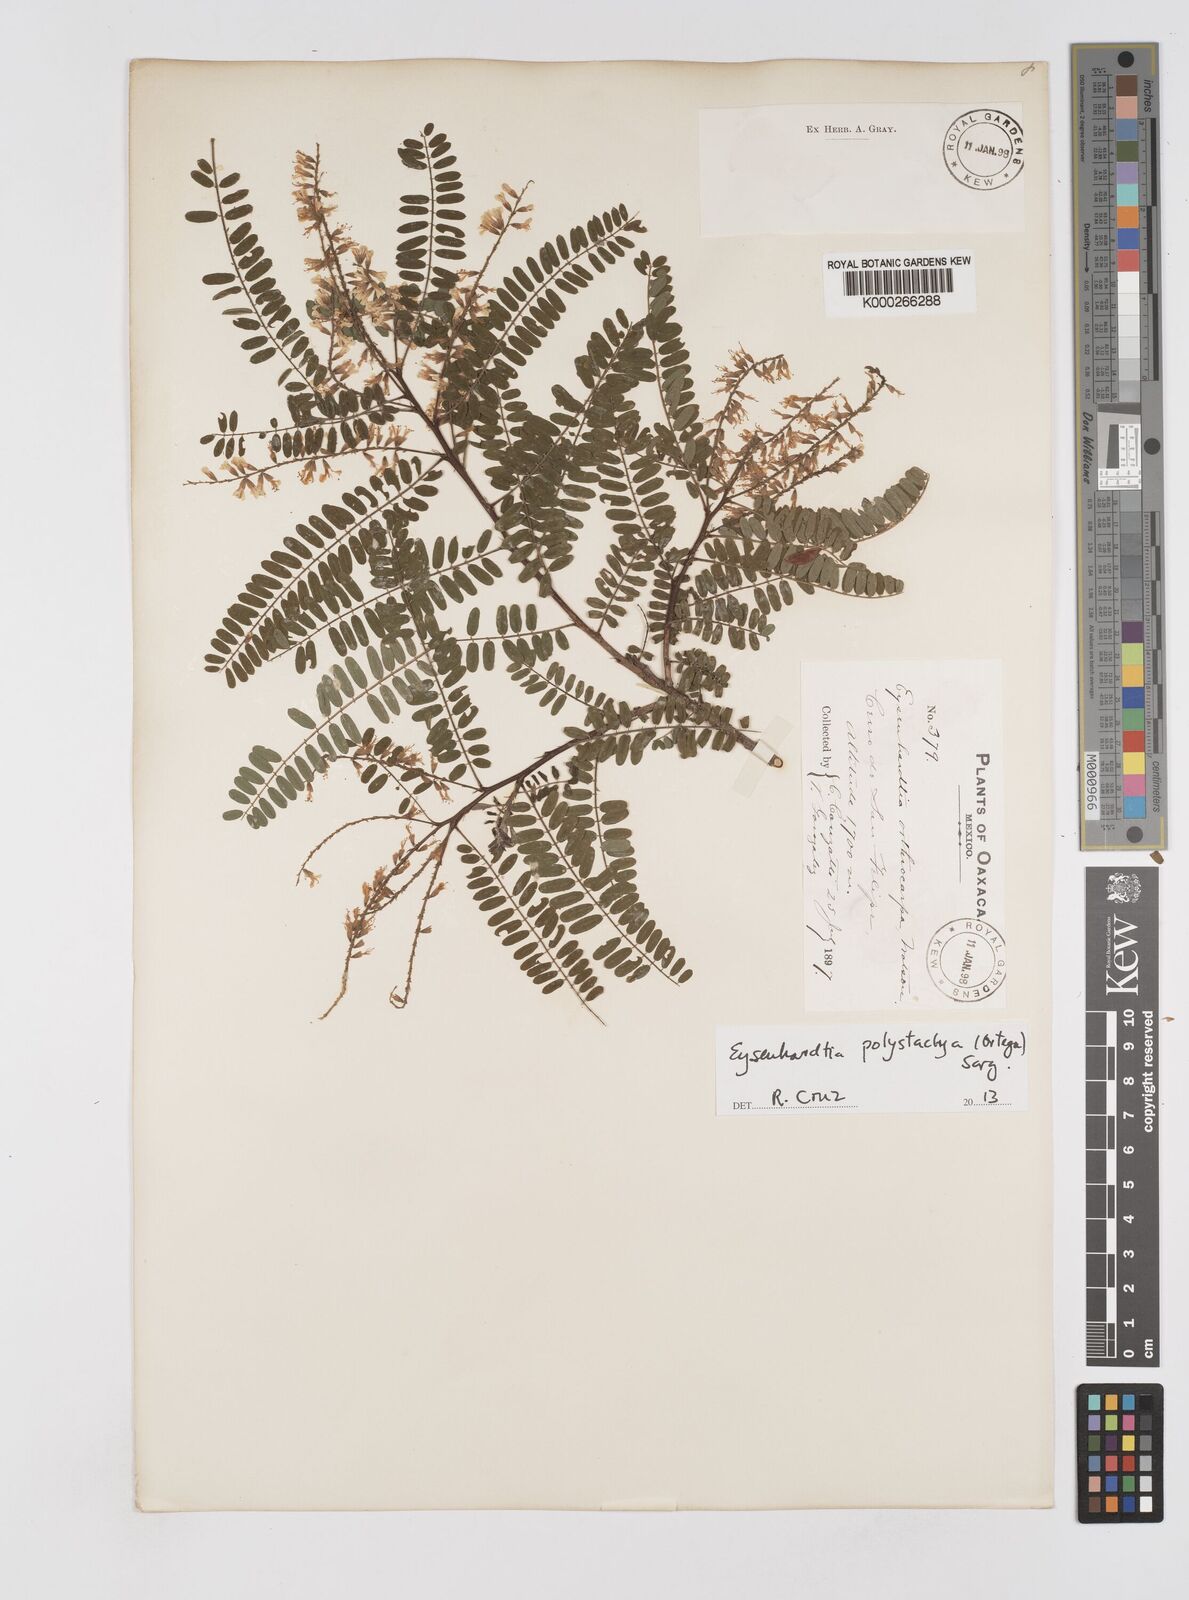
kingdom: Plantae
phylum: Tracheophyta
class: Magnoliopsida
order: Fabales
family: Fabaceae
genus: Eysenhardtia
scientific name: Eysenhardtia polystachya
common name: Kidneywood
